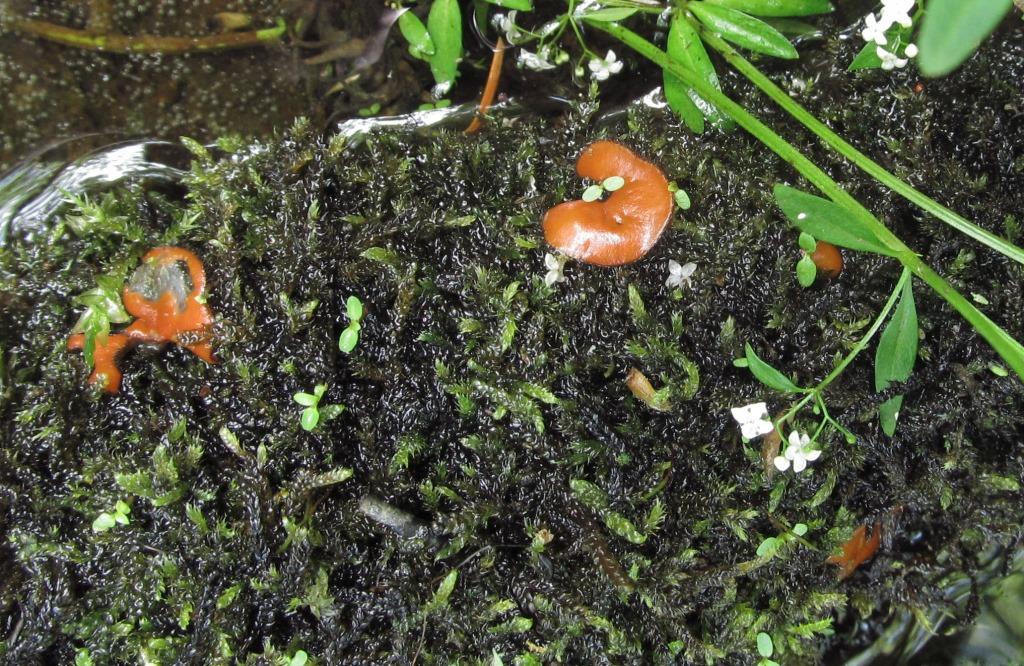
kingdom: Fungi
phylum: Ascomycota
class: Pezizomycetes
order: Pezizales
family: Pyronemataceae
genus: Scutellinia
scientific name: Scutellinia scutellata
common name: frynset skjoldbæger
